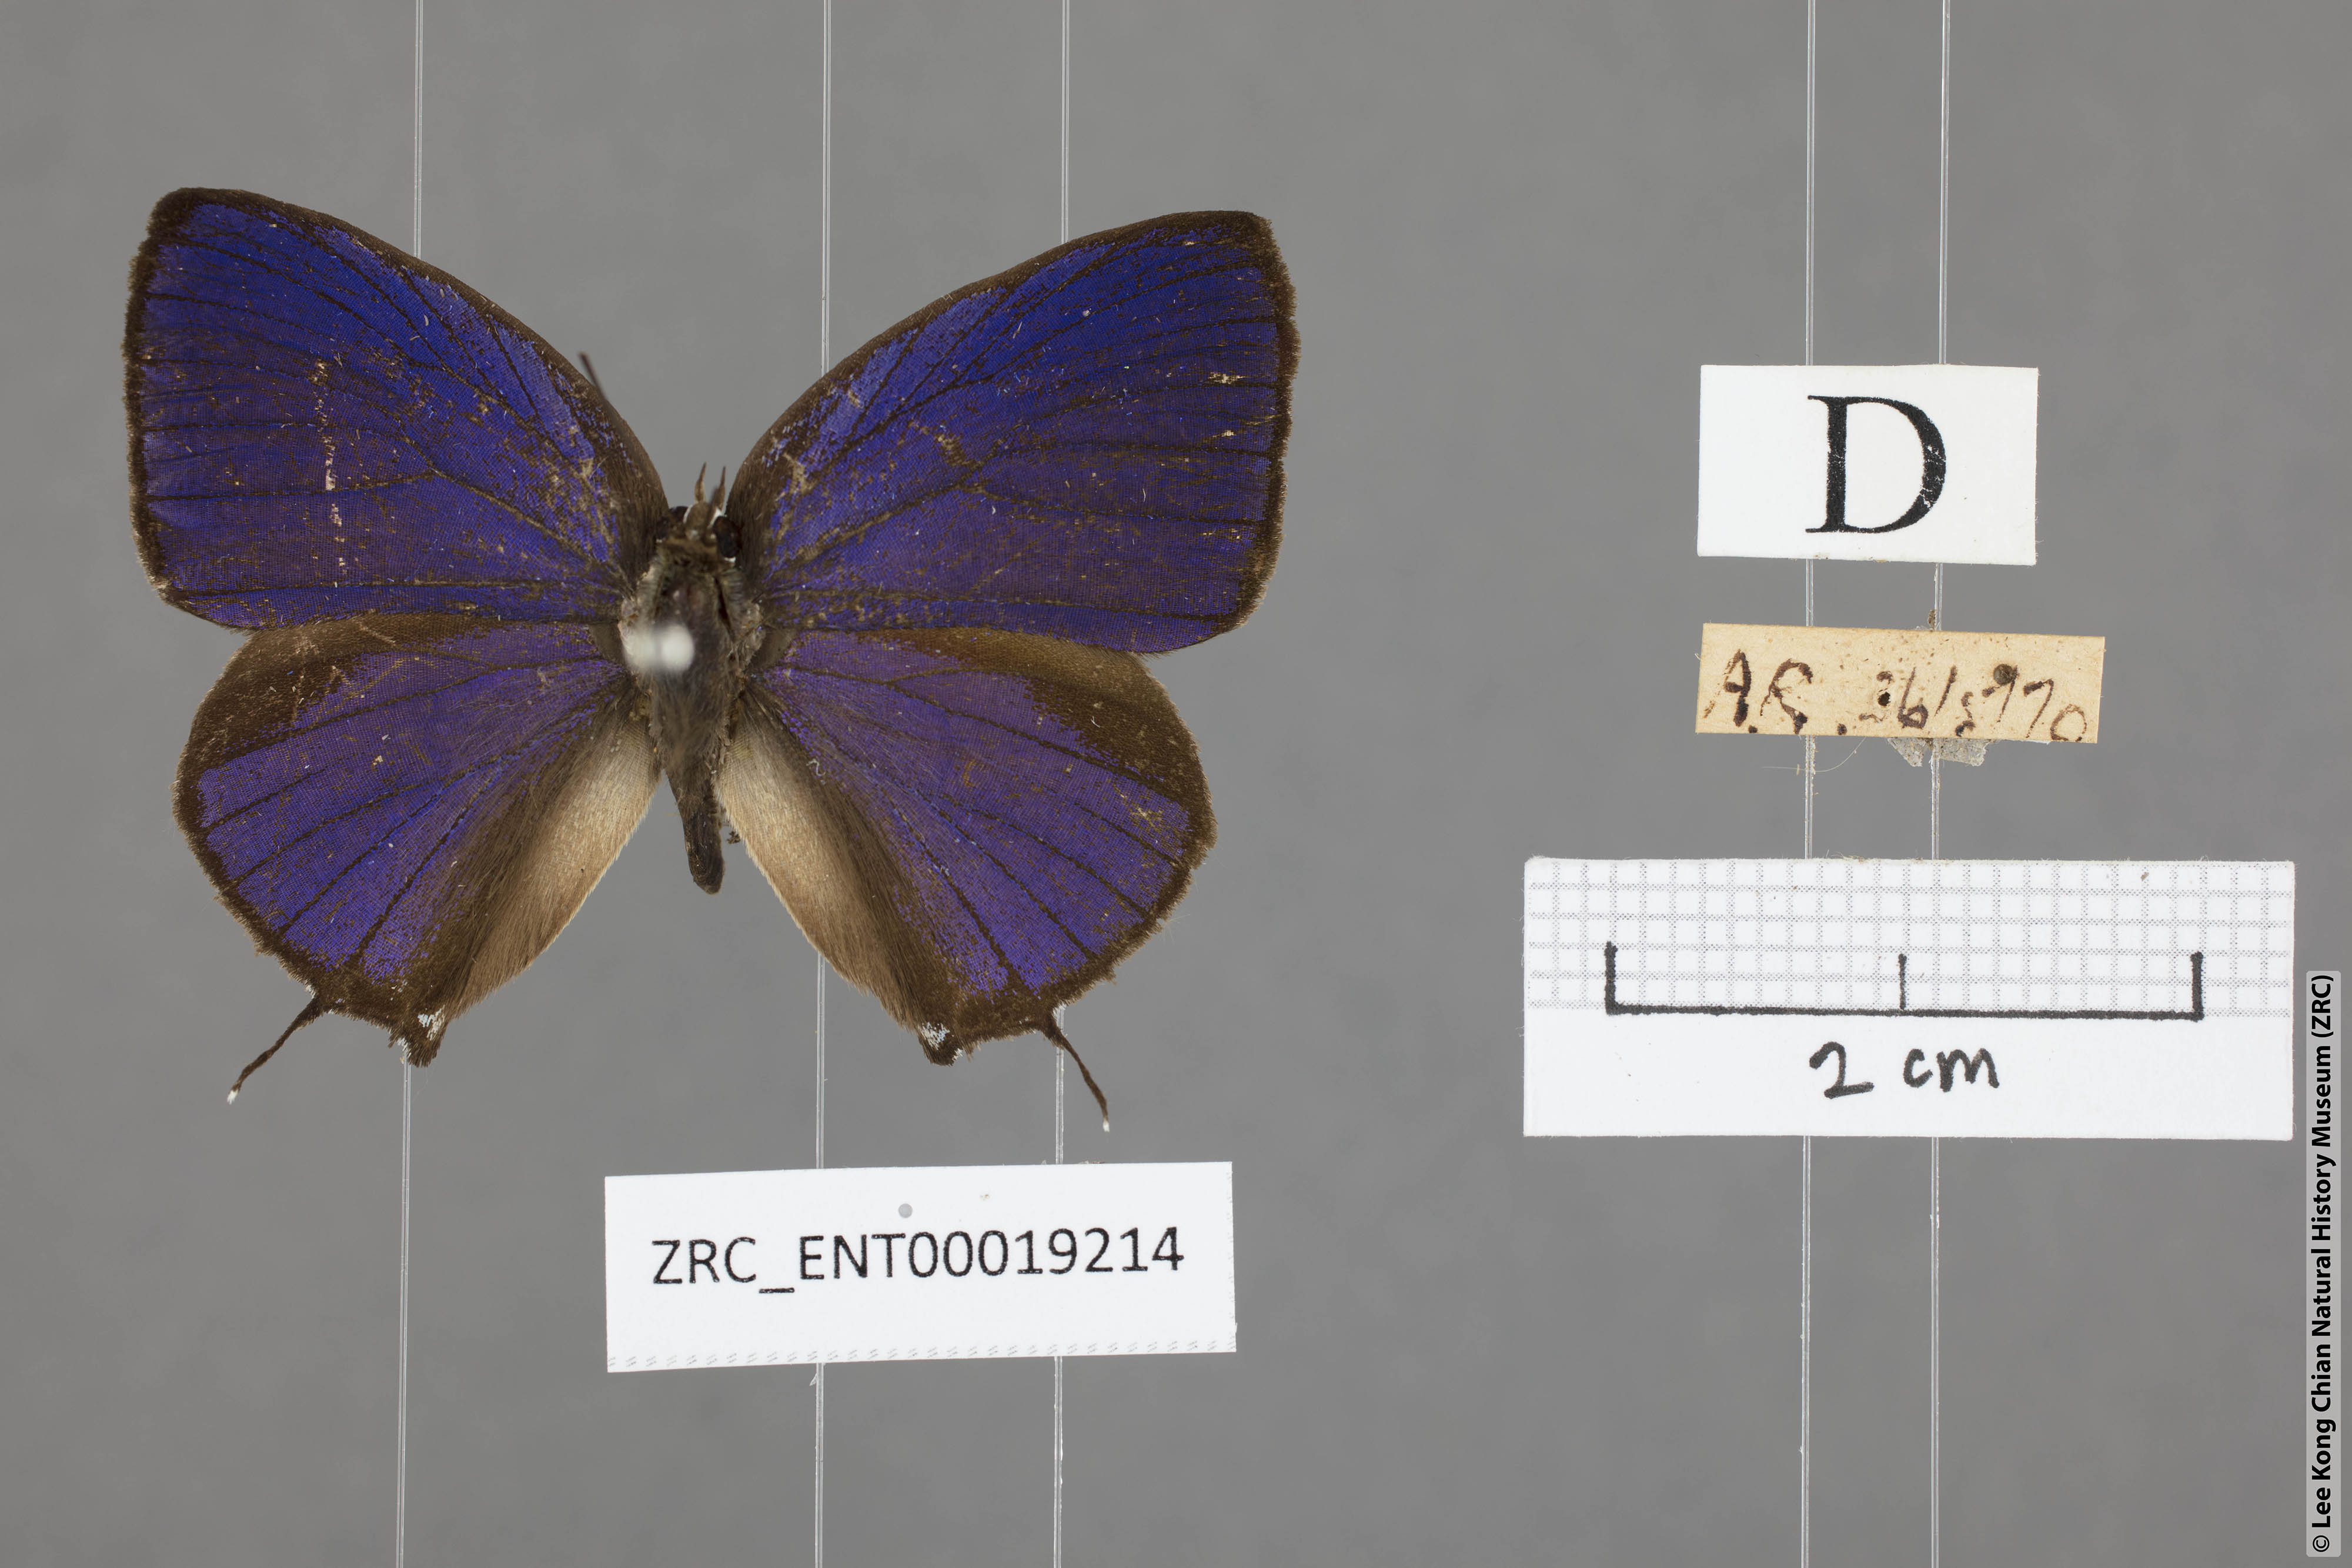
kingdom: Animalia
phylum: Arthropoda
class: Insecta
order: Lepidoptera
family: Lycaenidae
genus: Arhopala
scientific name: Arhopala athada
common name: Vinous oakblue
